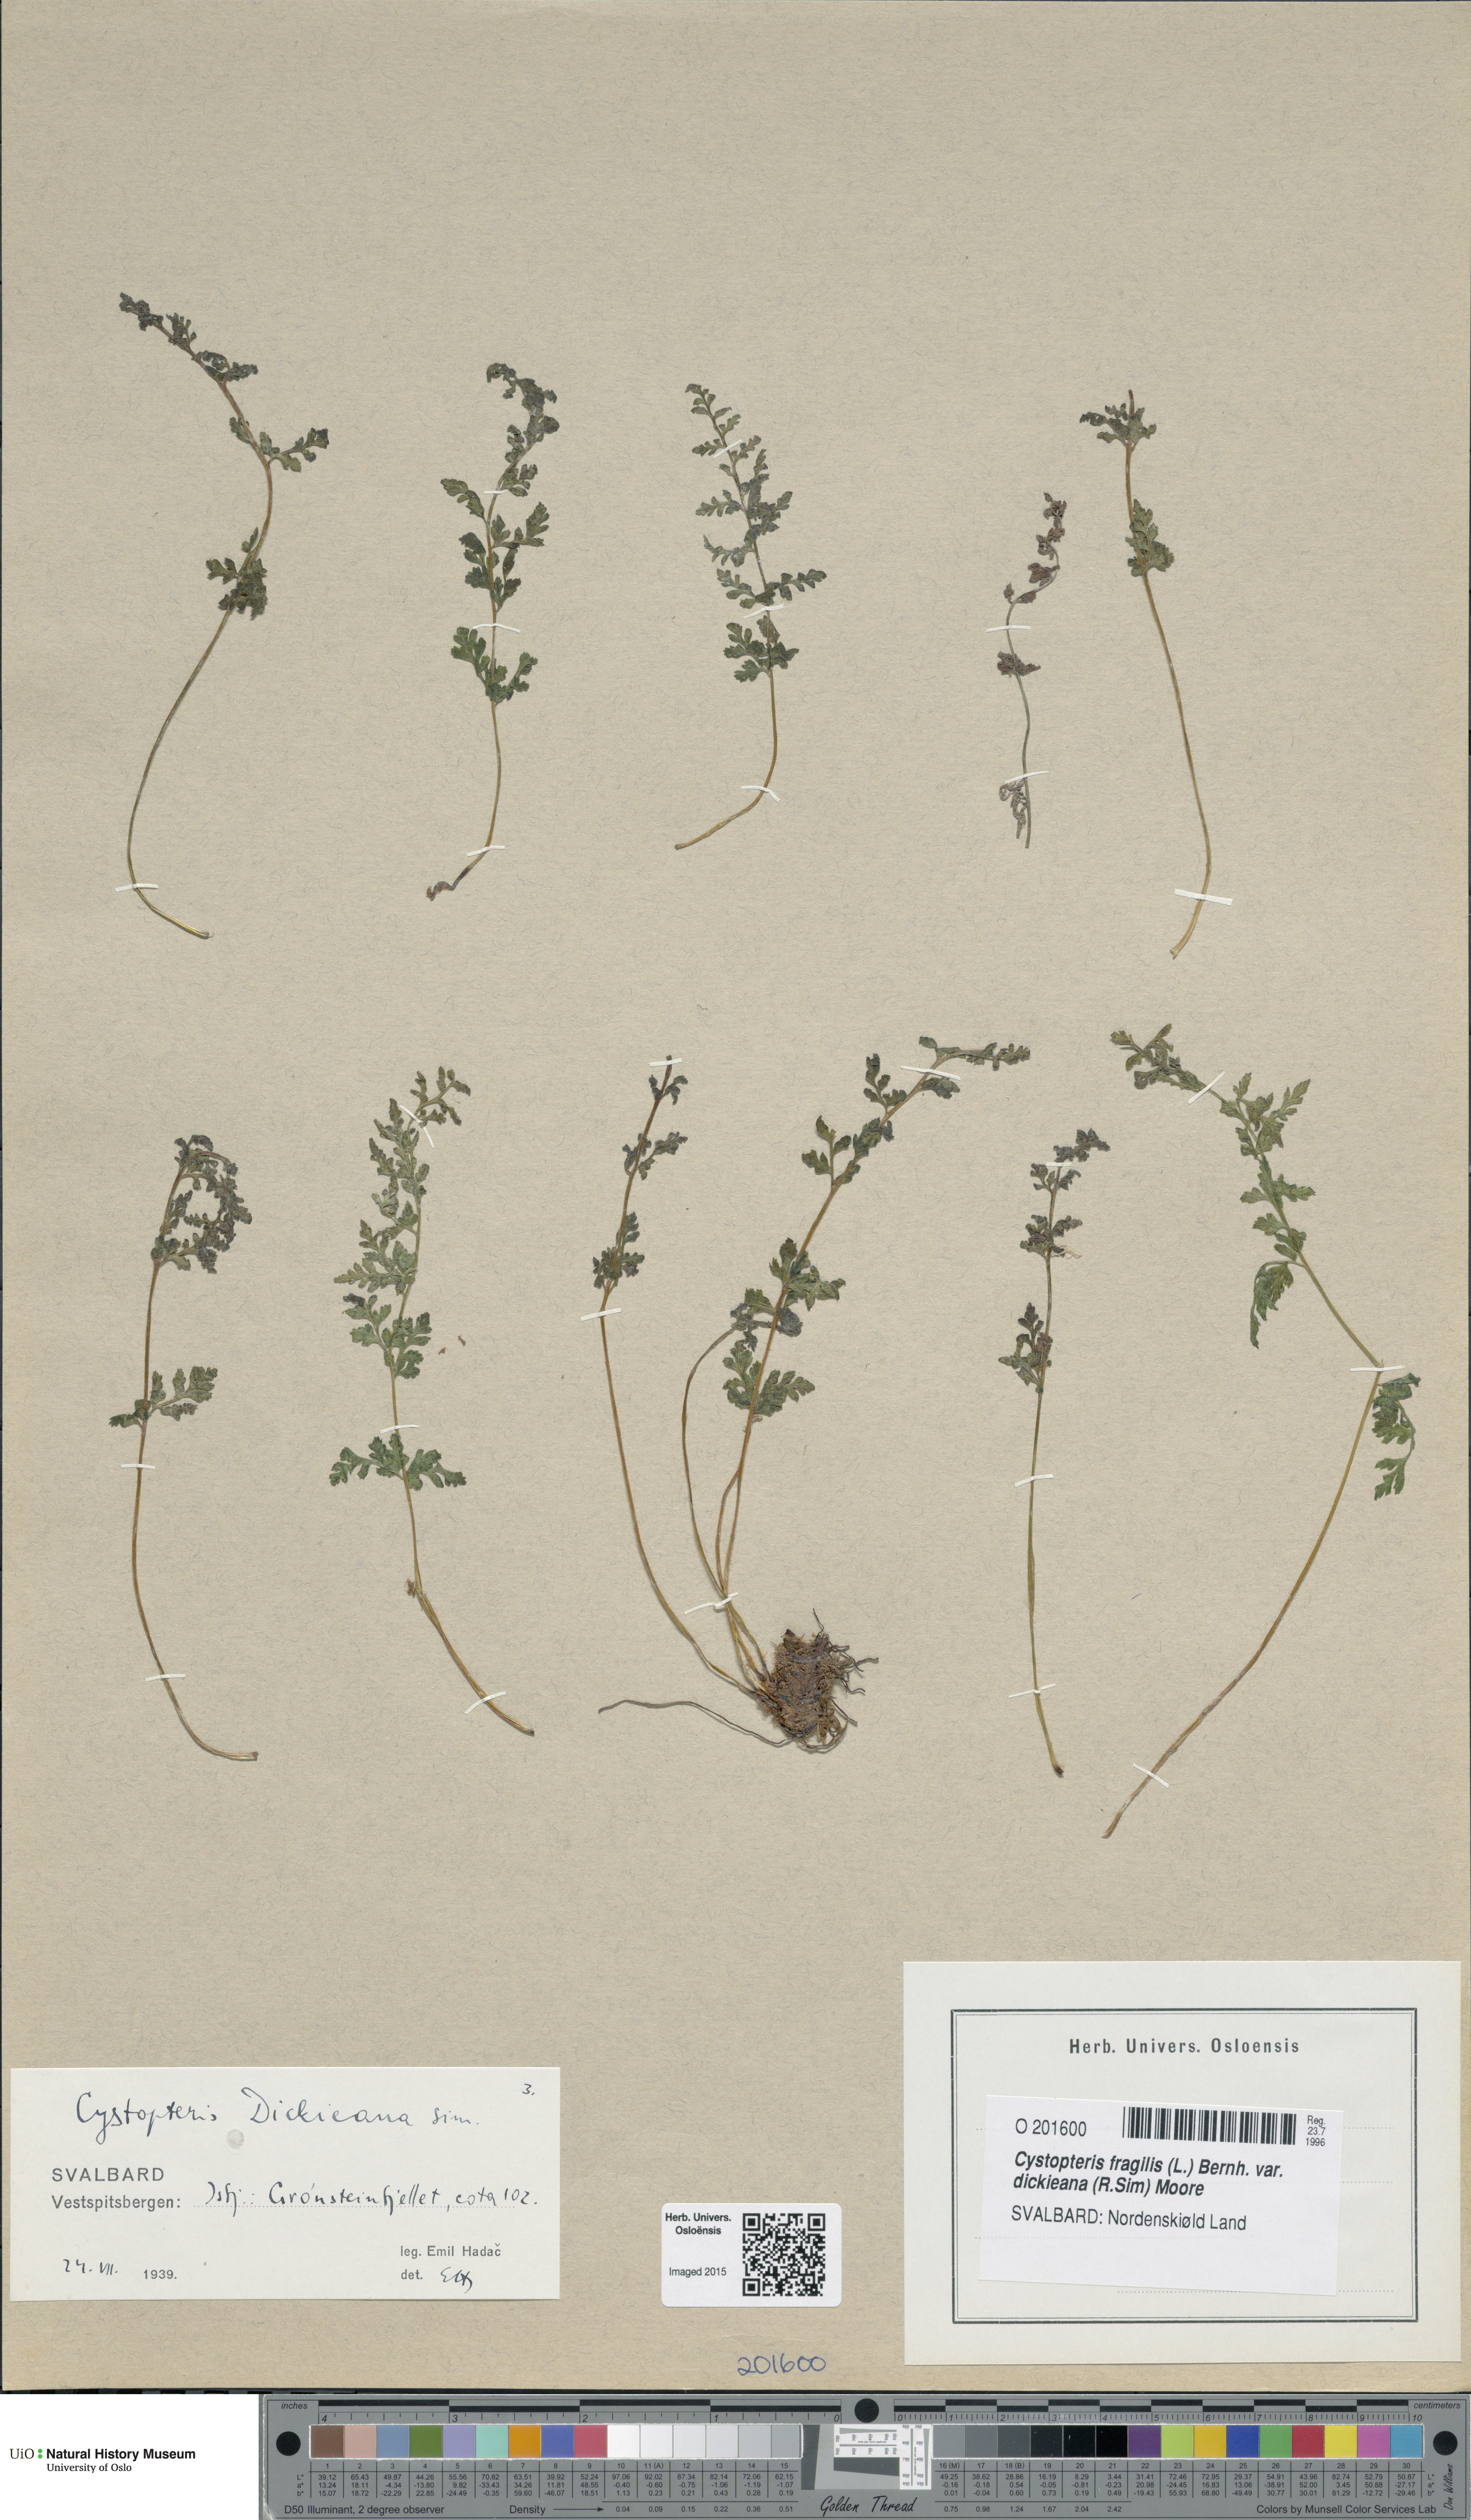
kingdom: Plantae
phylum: Tracheophyta
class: Polypodiopsida
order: Polypodiales
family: Cystopteridaceae
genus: Cystopteris
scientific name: Cystopteris dickieana
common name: Dickie's bladder-fern
